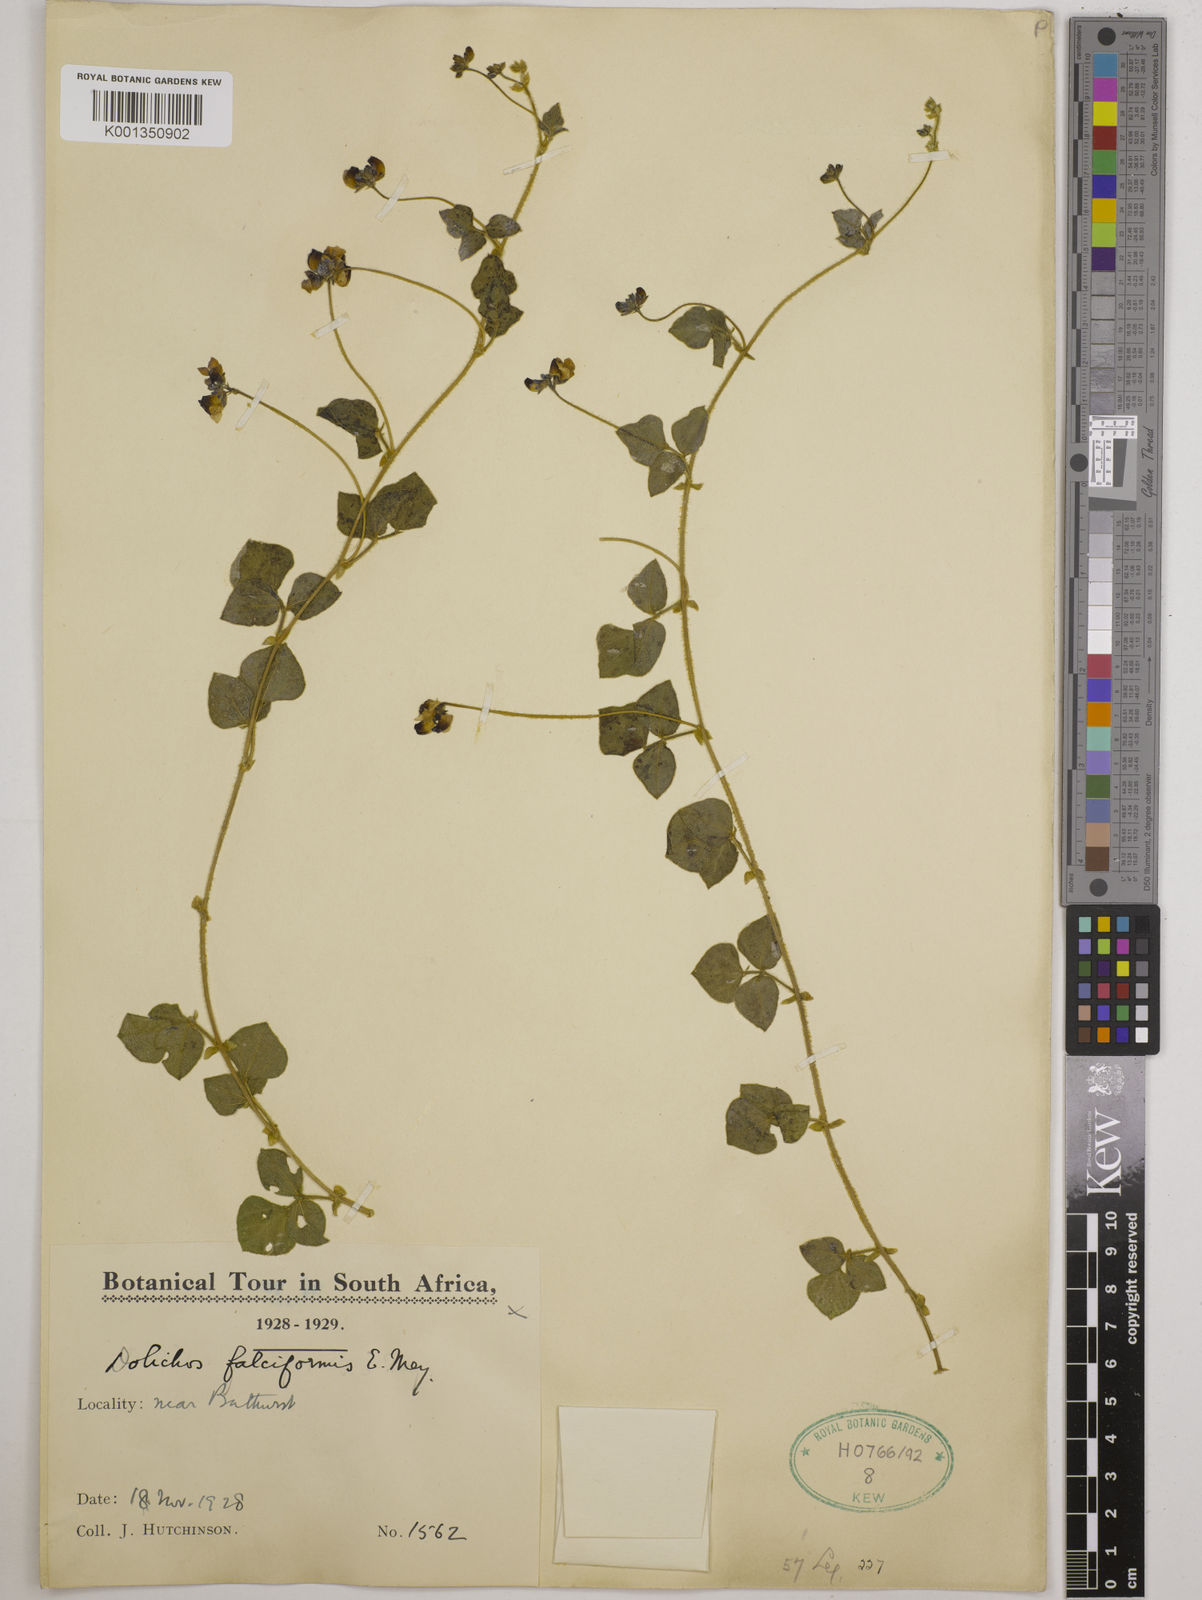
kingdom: Plantae
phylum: Tracheophyta
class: Magnoliopsida
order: Fabales
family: Fabaceae
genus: Dolichos
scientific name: Dolichos falciformis
